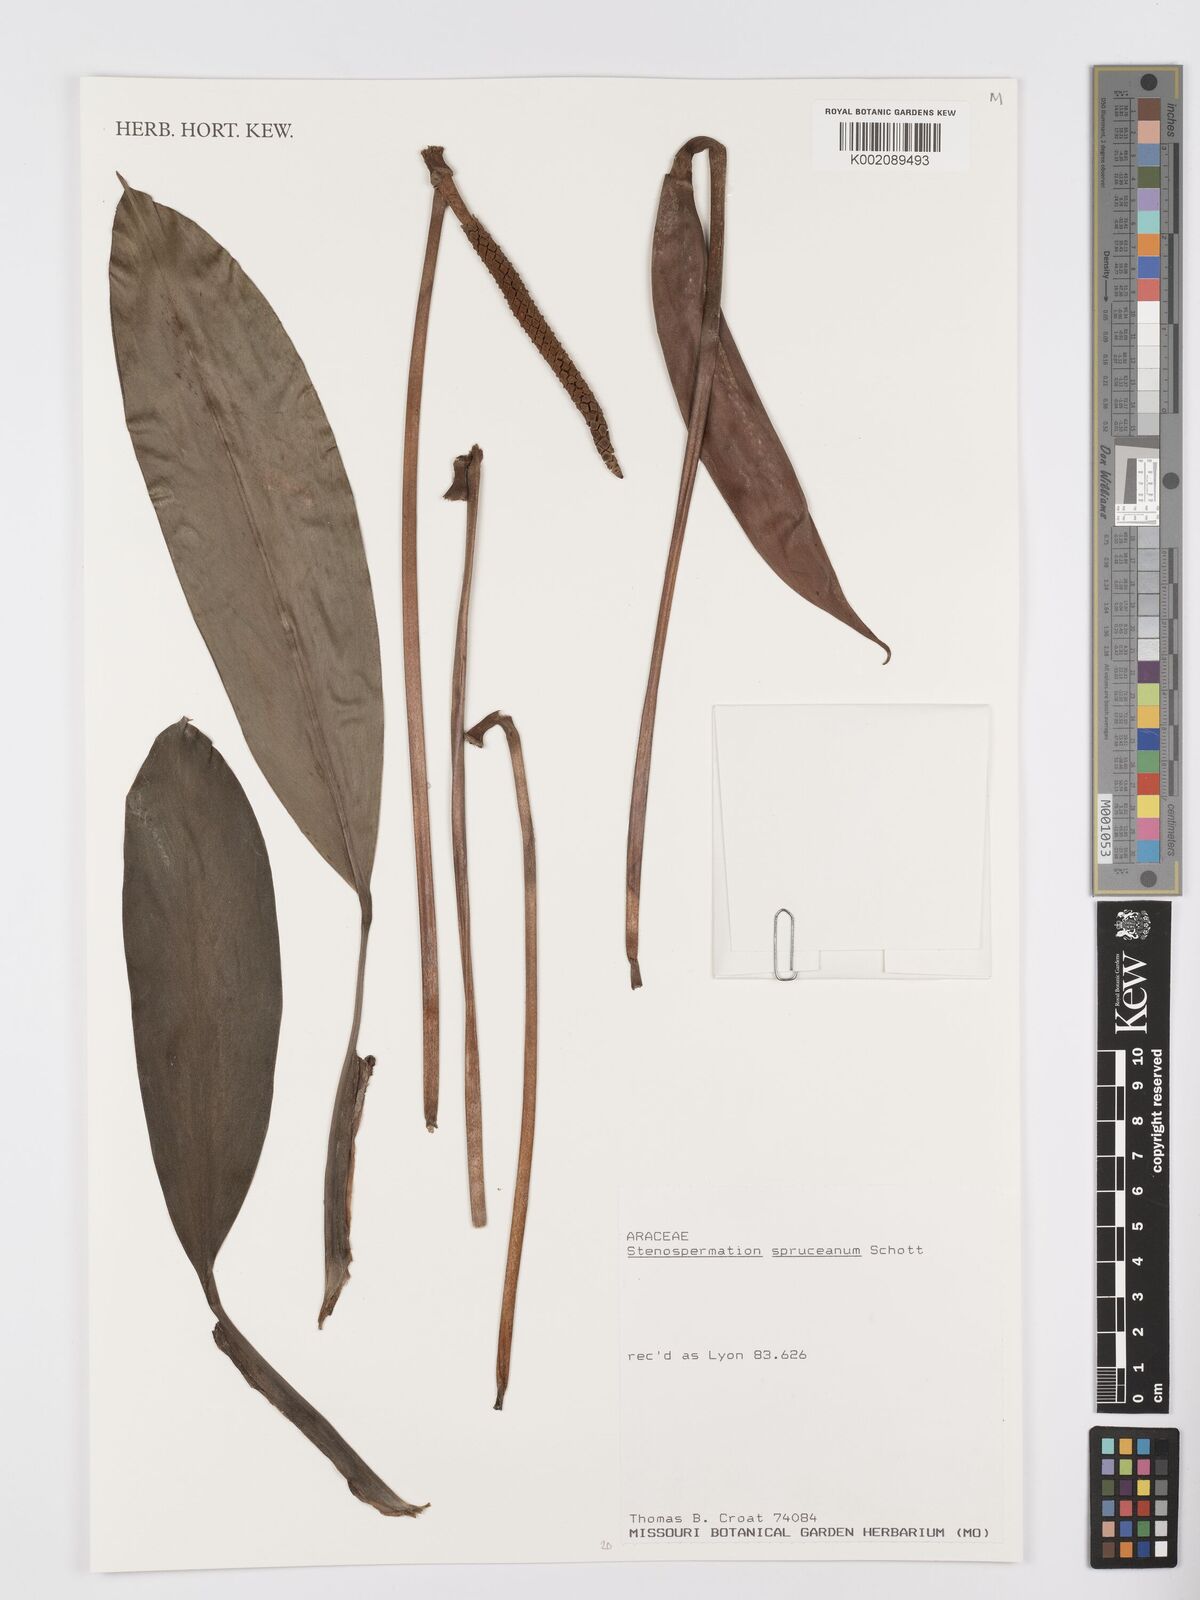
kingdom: Plantae
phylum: Tracheophyta
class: Liliopsida
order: Alismatales
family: Araceae
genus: Stenospermation
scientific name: Stenospermation spruceanum
